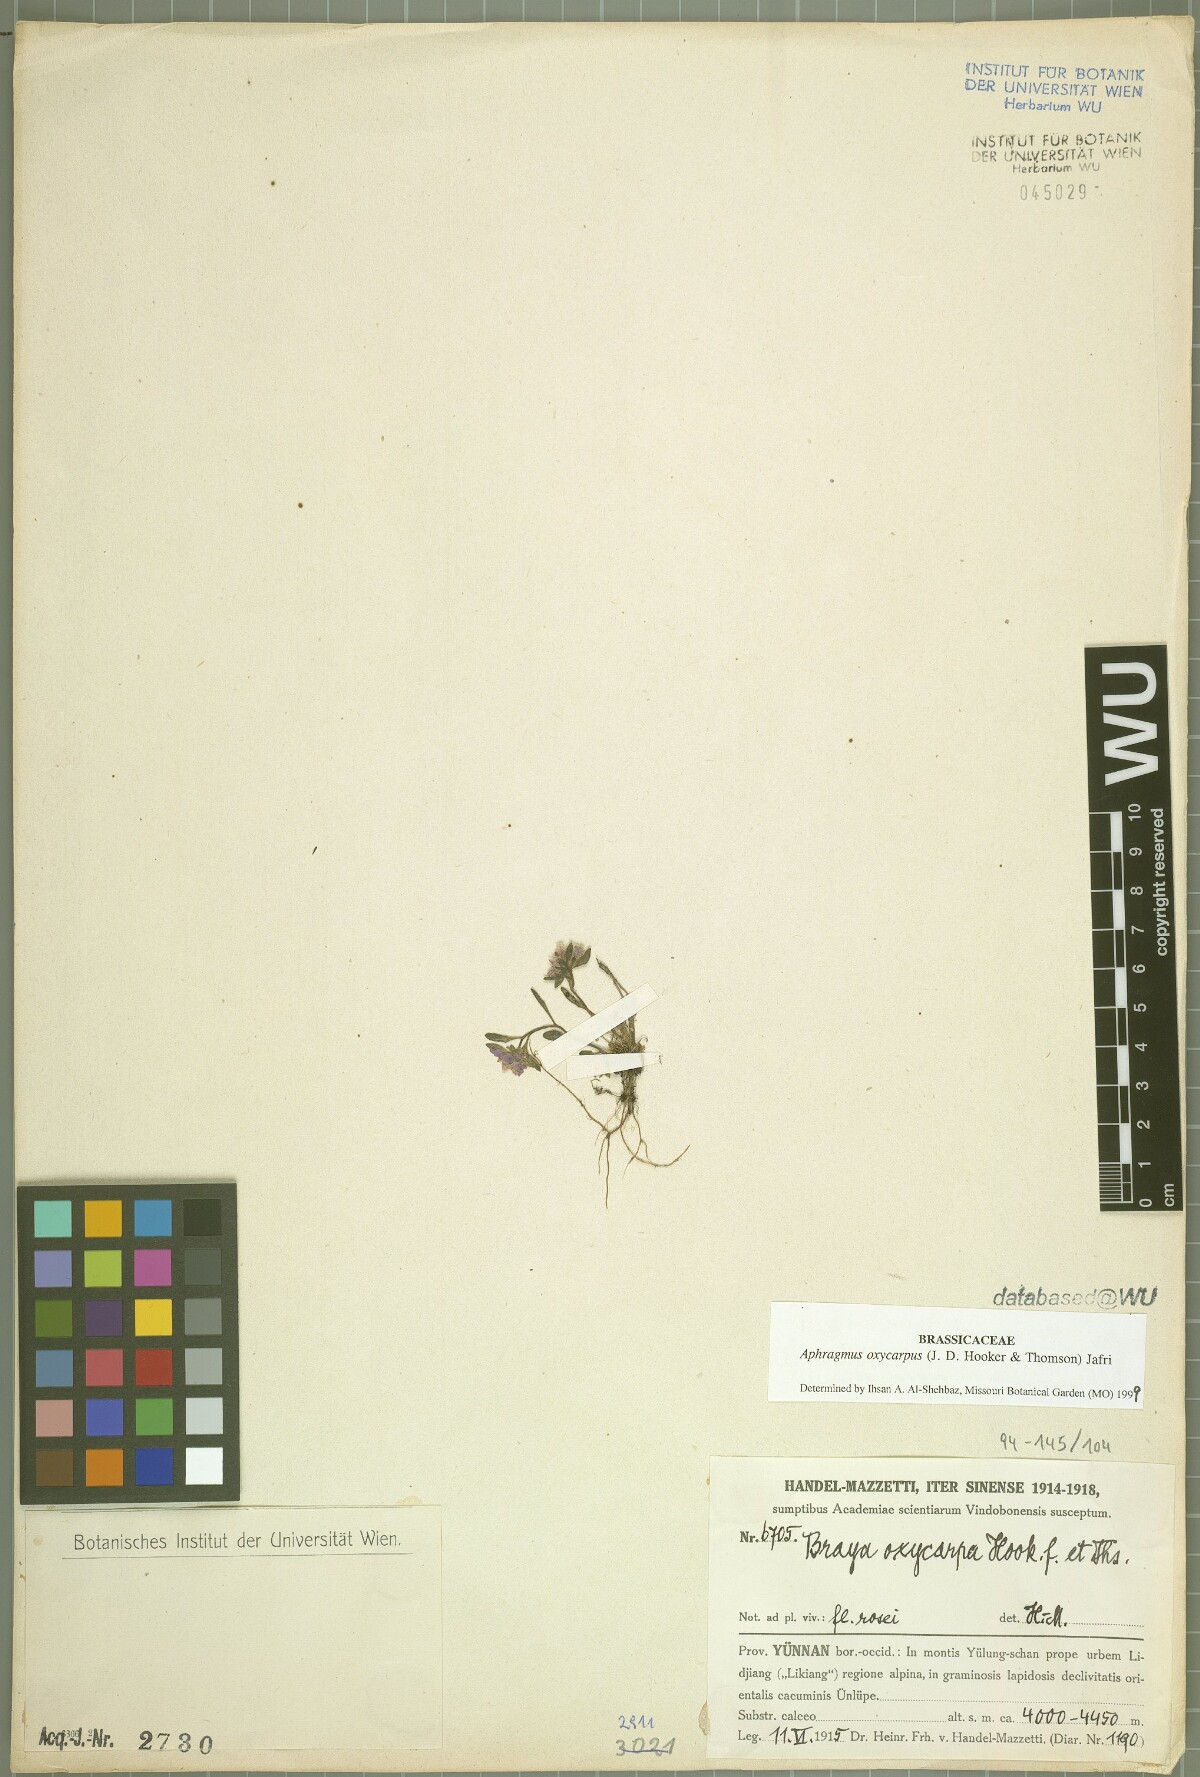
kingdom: Plantae
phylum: Tracheophyta
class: Magnoliopsida
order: Brassicales
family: Brassicaceae
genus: Aphragmus
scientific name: Aphragmus oxycarpus
